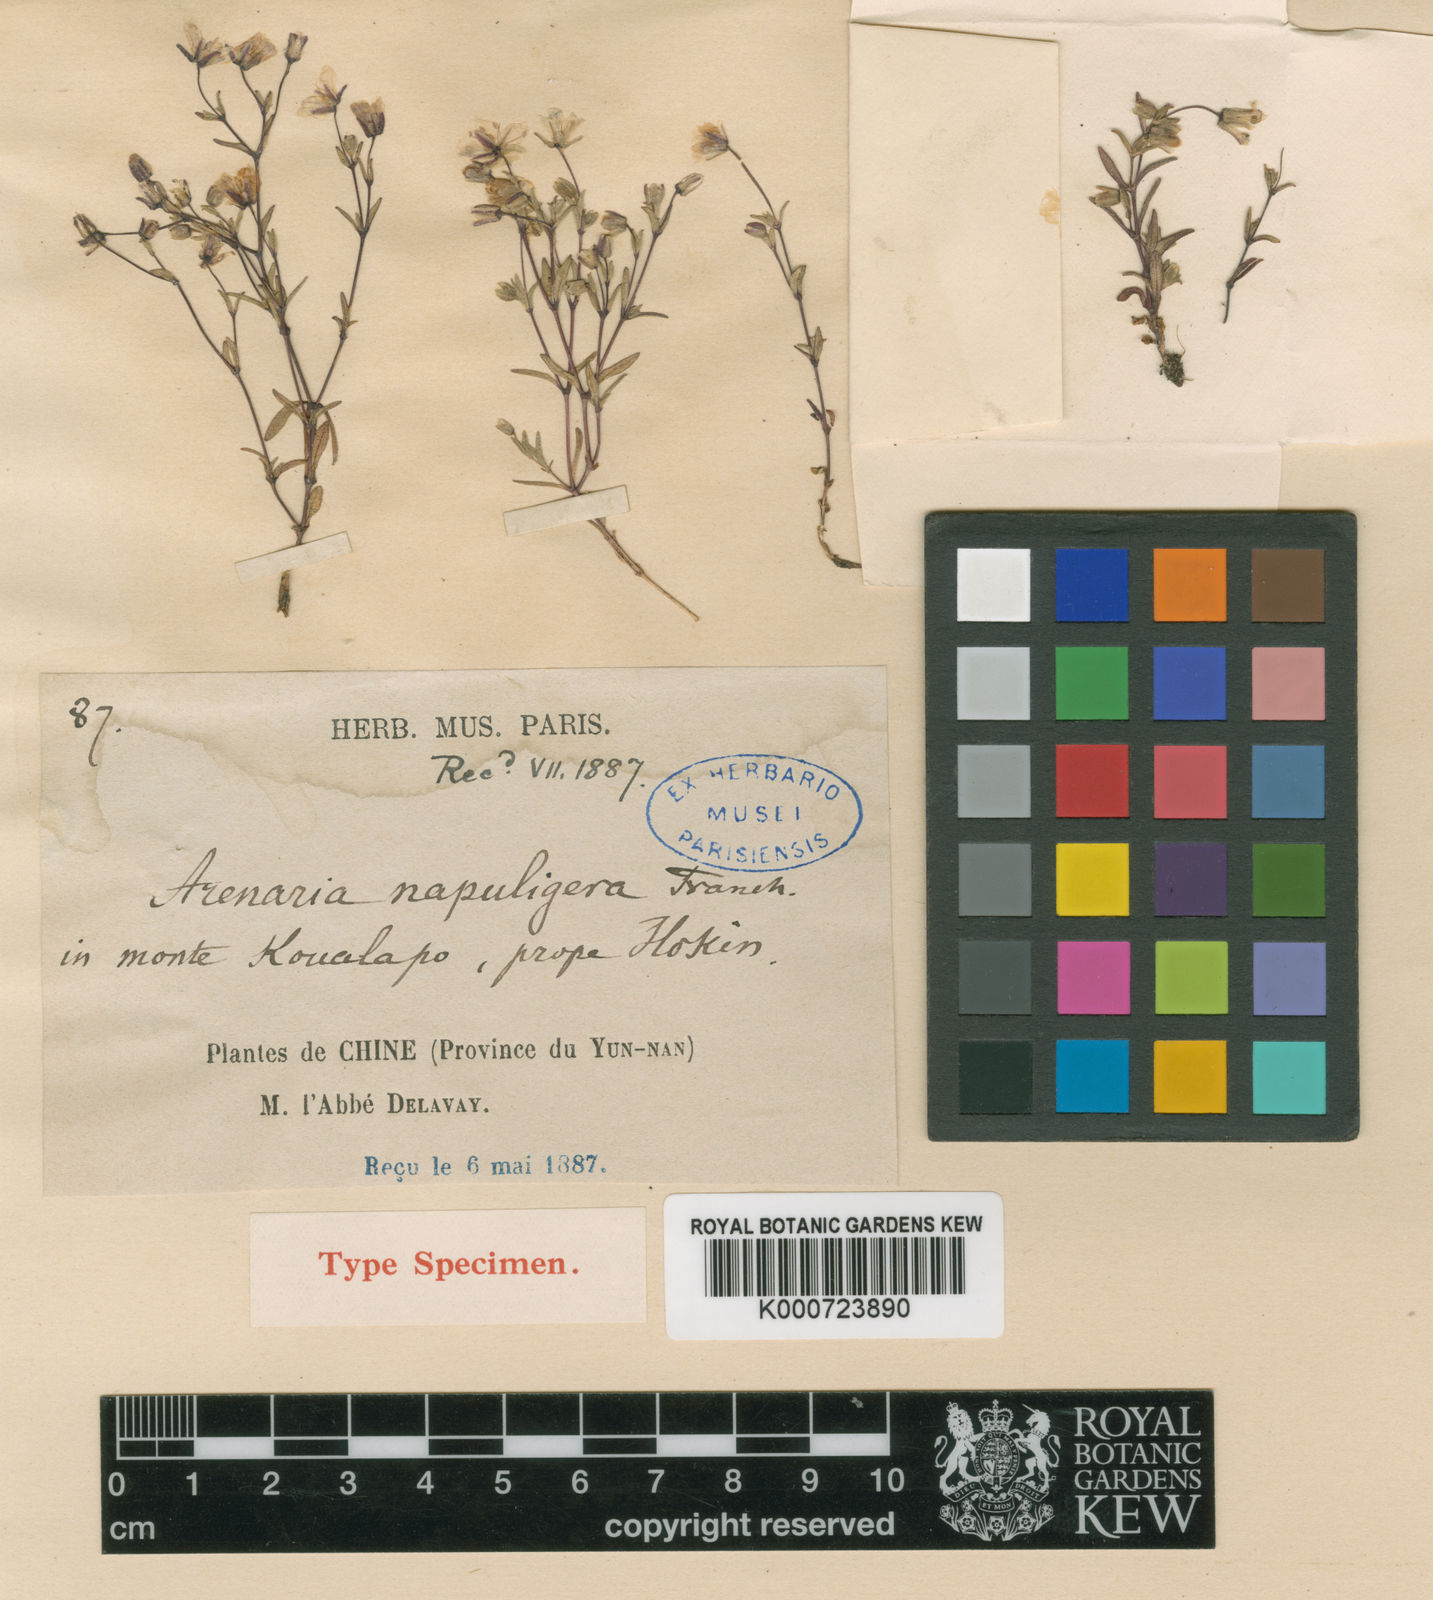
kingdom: Plantae
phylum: Tracheophyta
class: Magnoliopsida
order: Caryophyllales
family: Caryophyllaceae
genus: Odontostemma
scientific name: Odontostemma napuligerum
